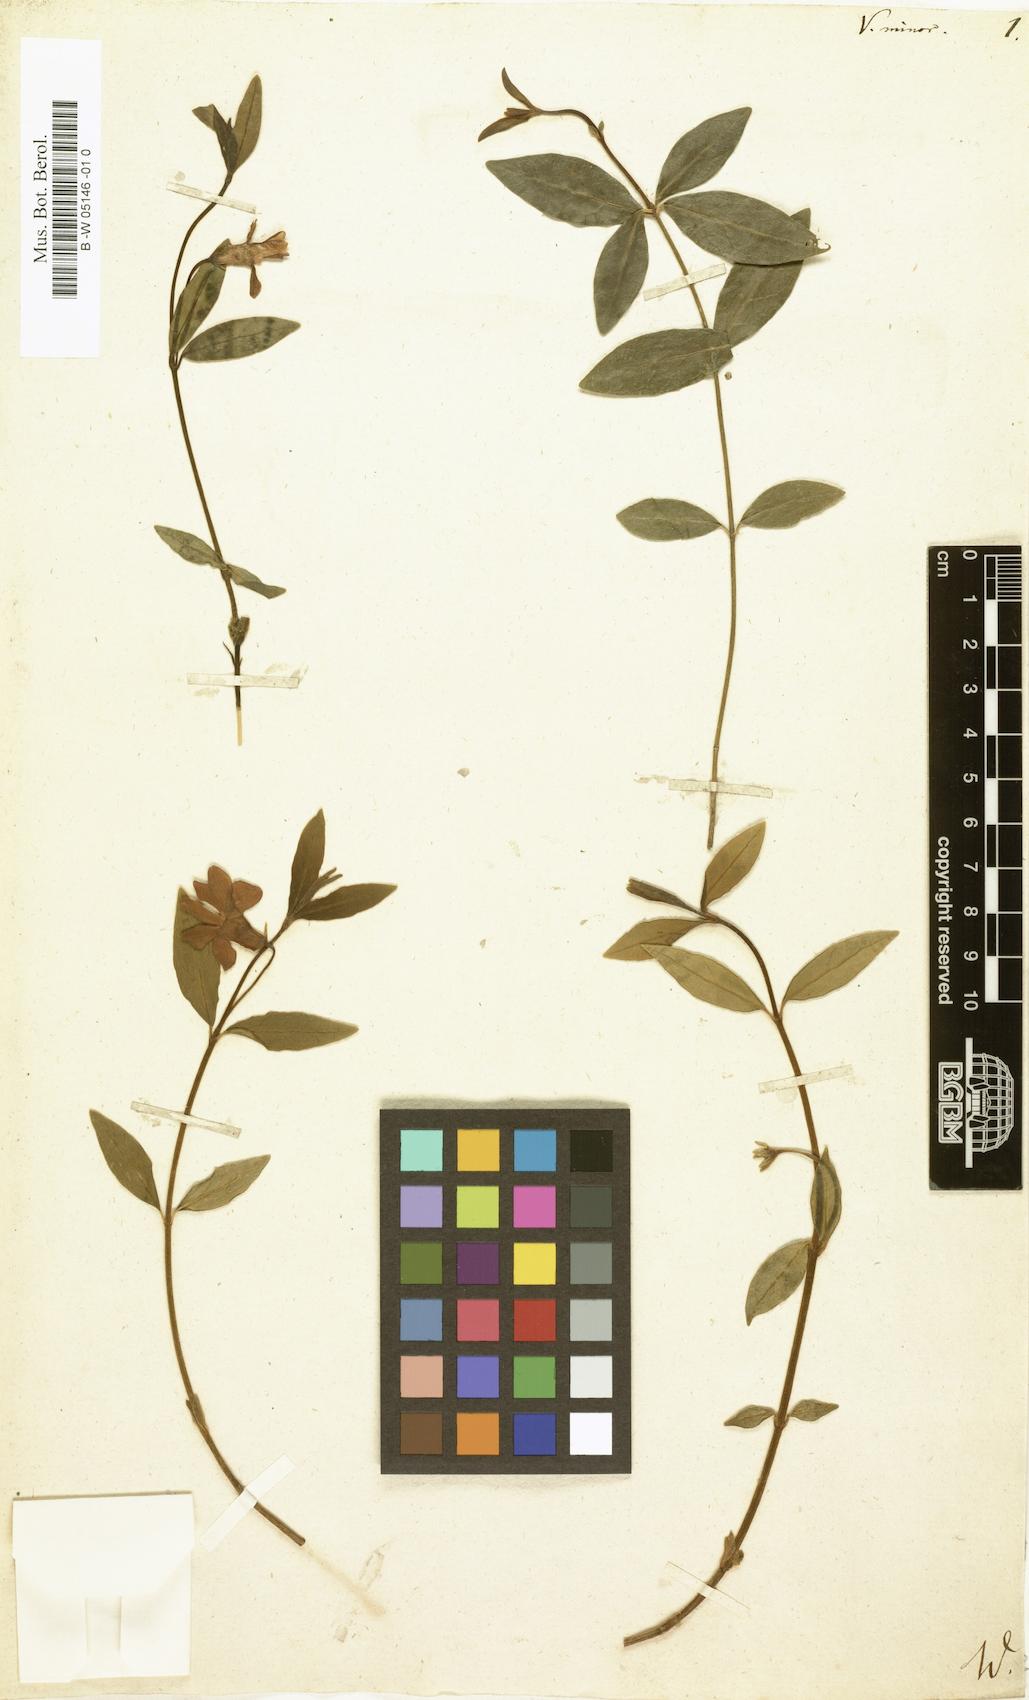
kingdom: Plantae
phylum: Tracheophyta
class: Magnoliopsida
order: Gentianales
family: Apocynaceae
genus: Vinca
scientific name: Vinca minor
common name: Lesser periwinkle
